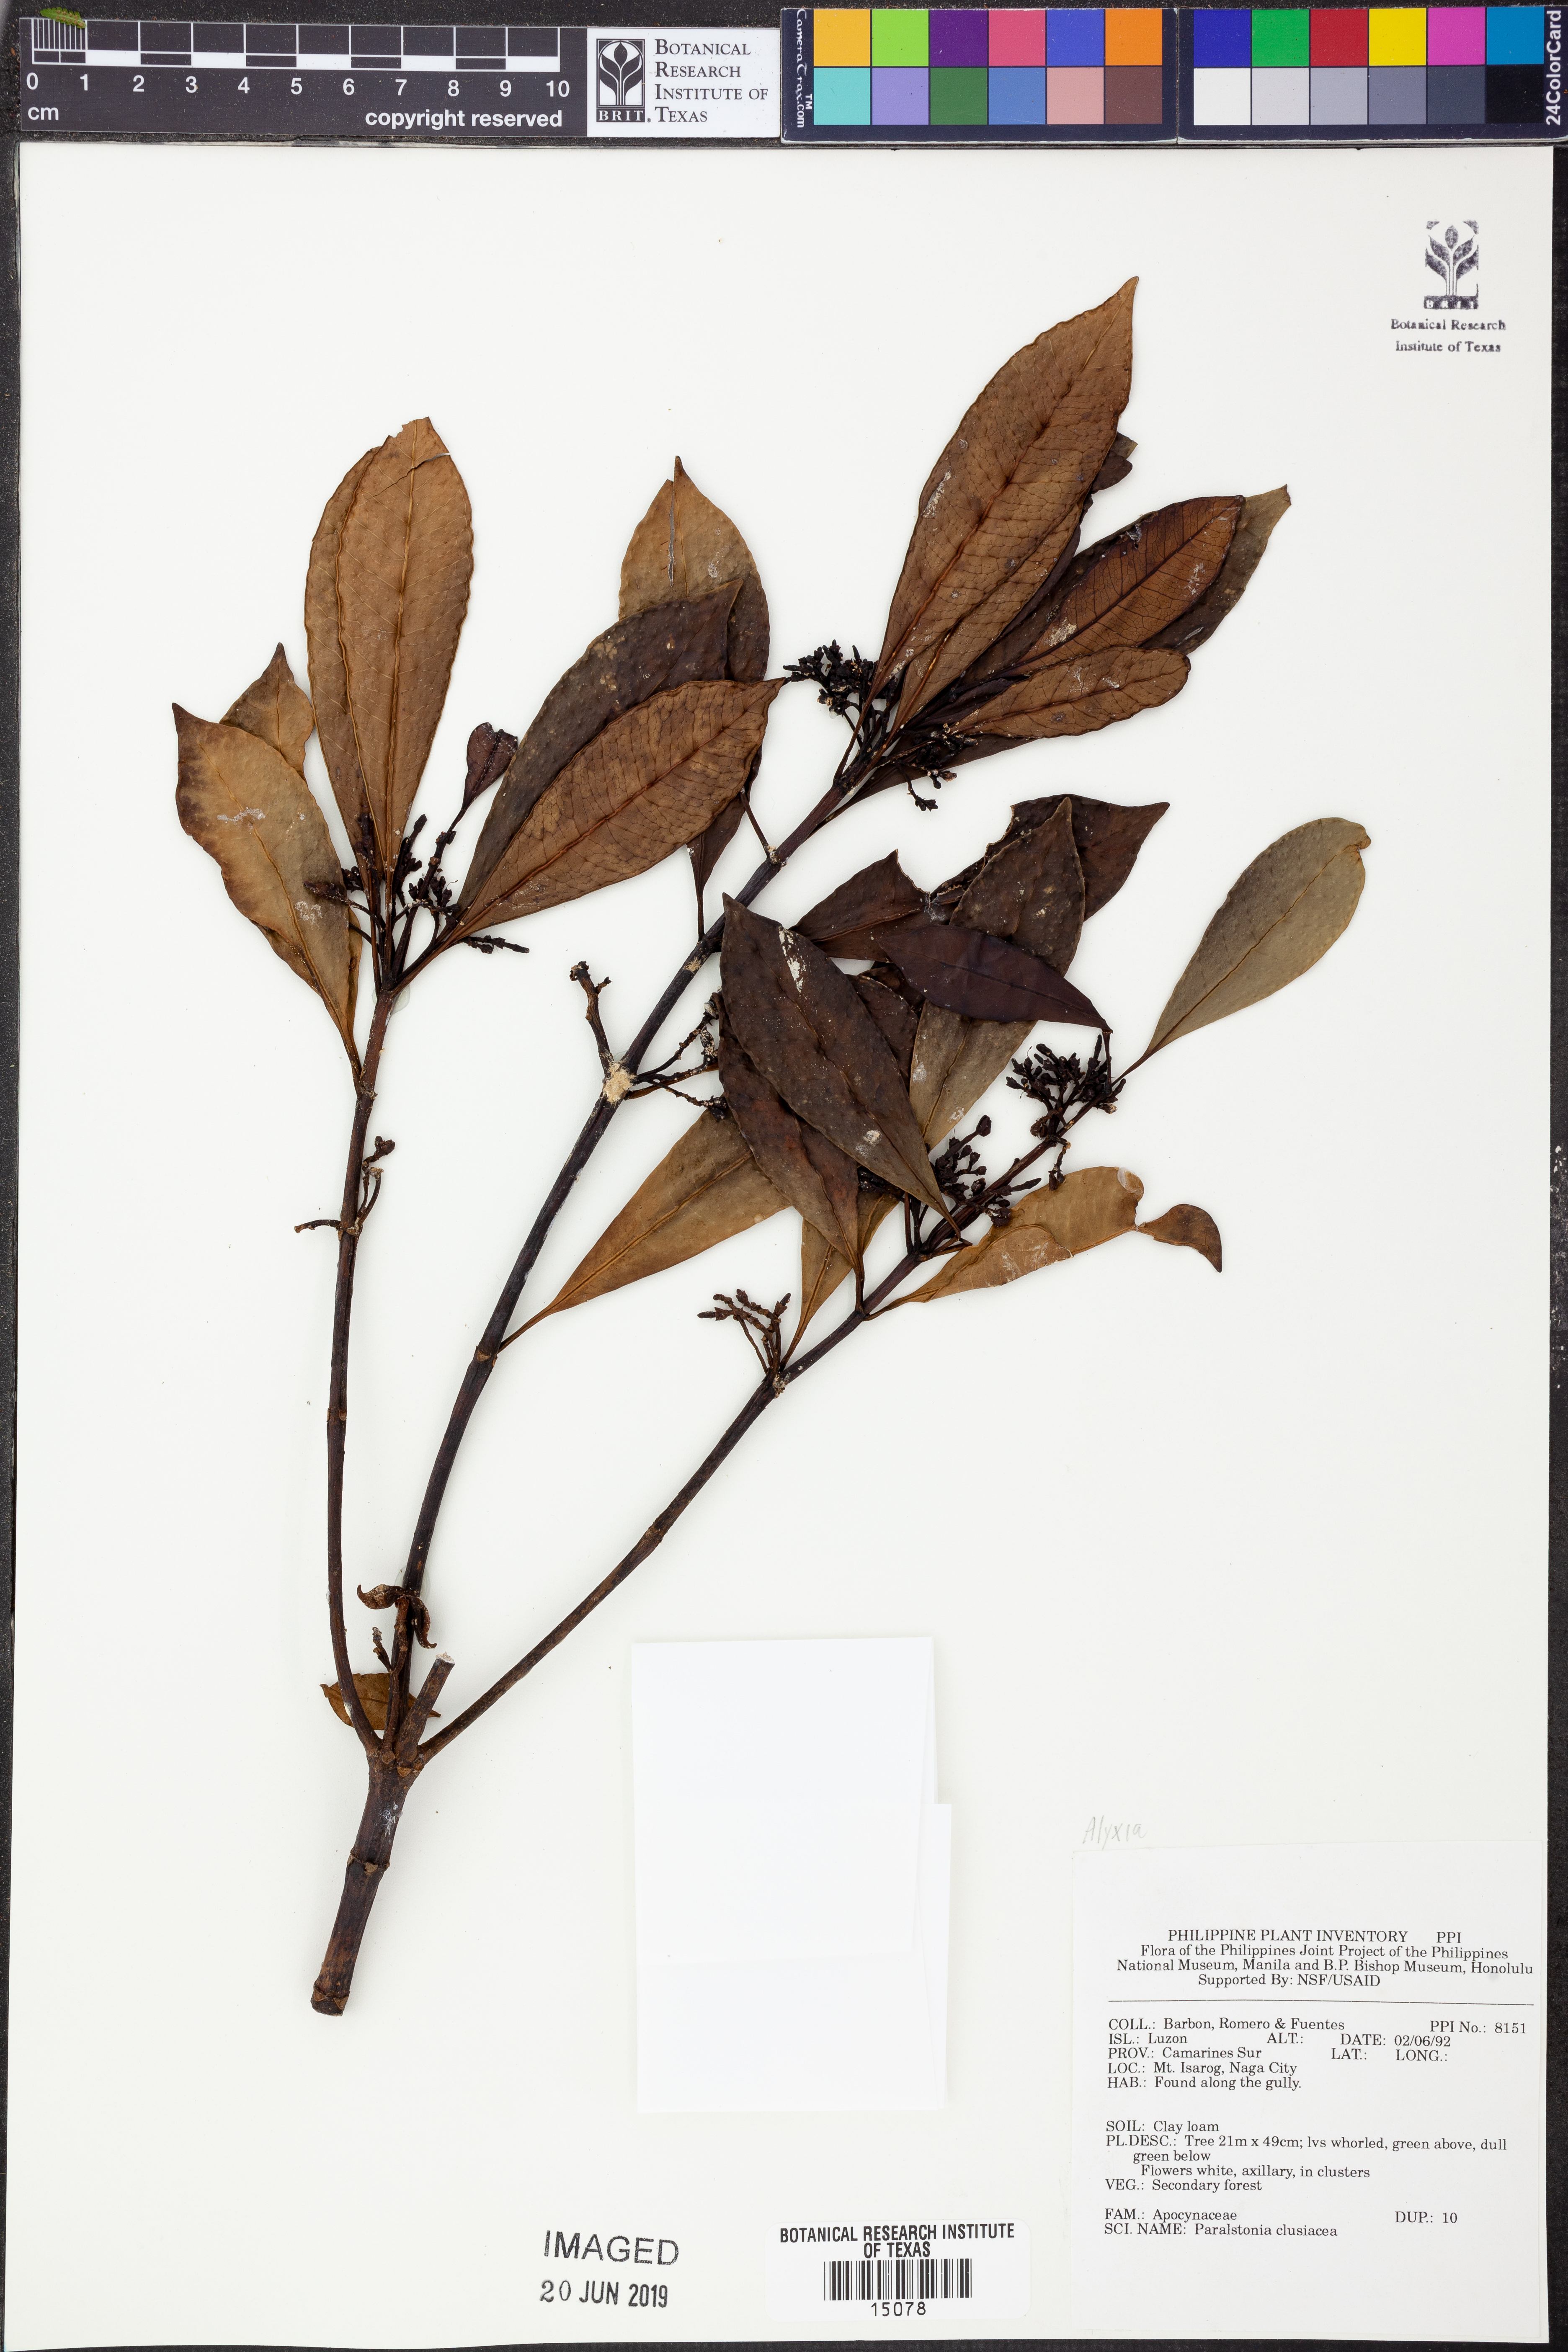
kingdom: Plantae
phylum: Tracheophyta
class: Magnoliopsida
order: Gentianales
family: Apocynaceae
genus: Alyxia
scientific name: Alyxia concatenata
